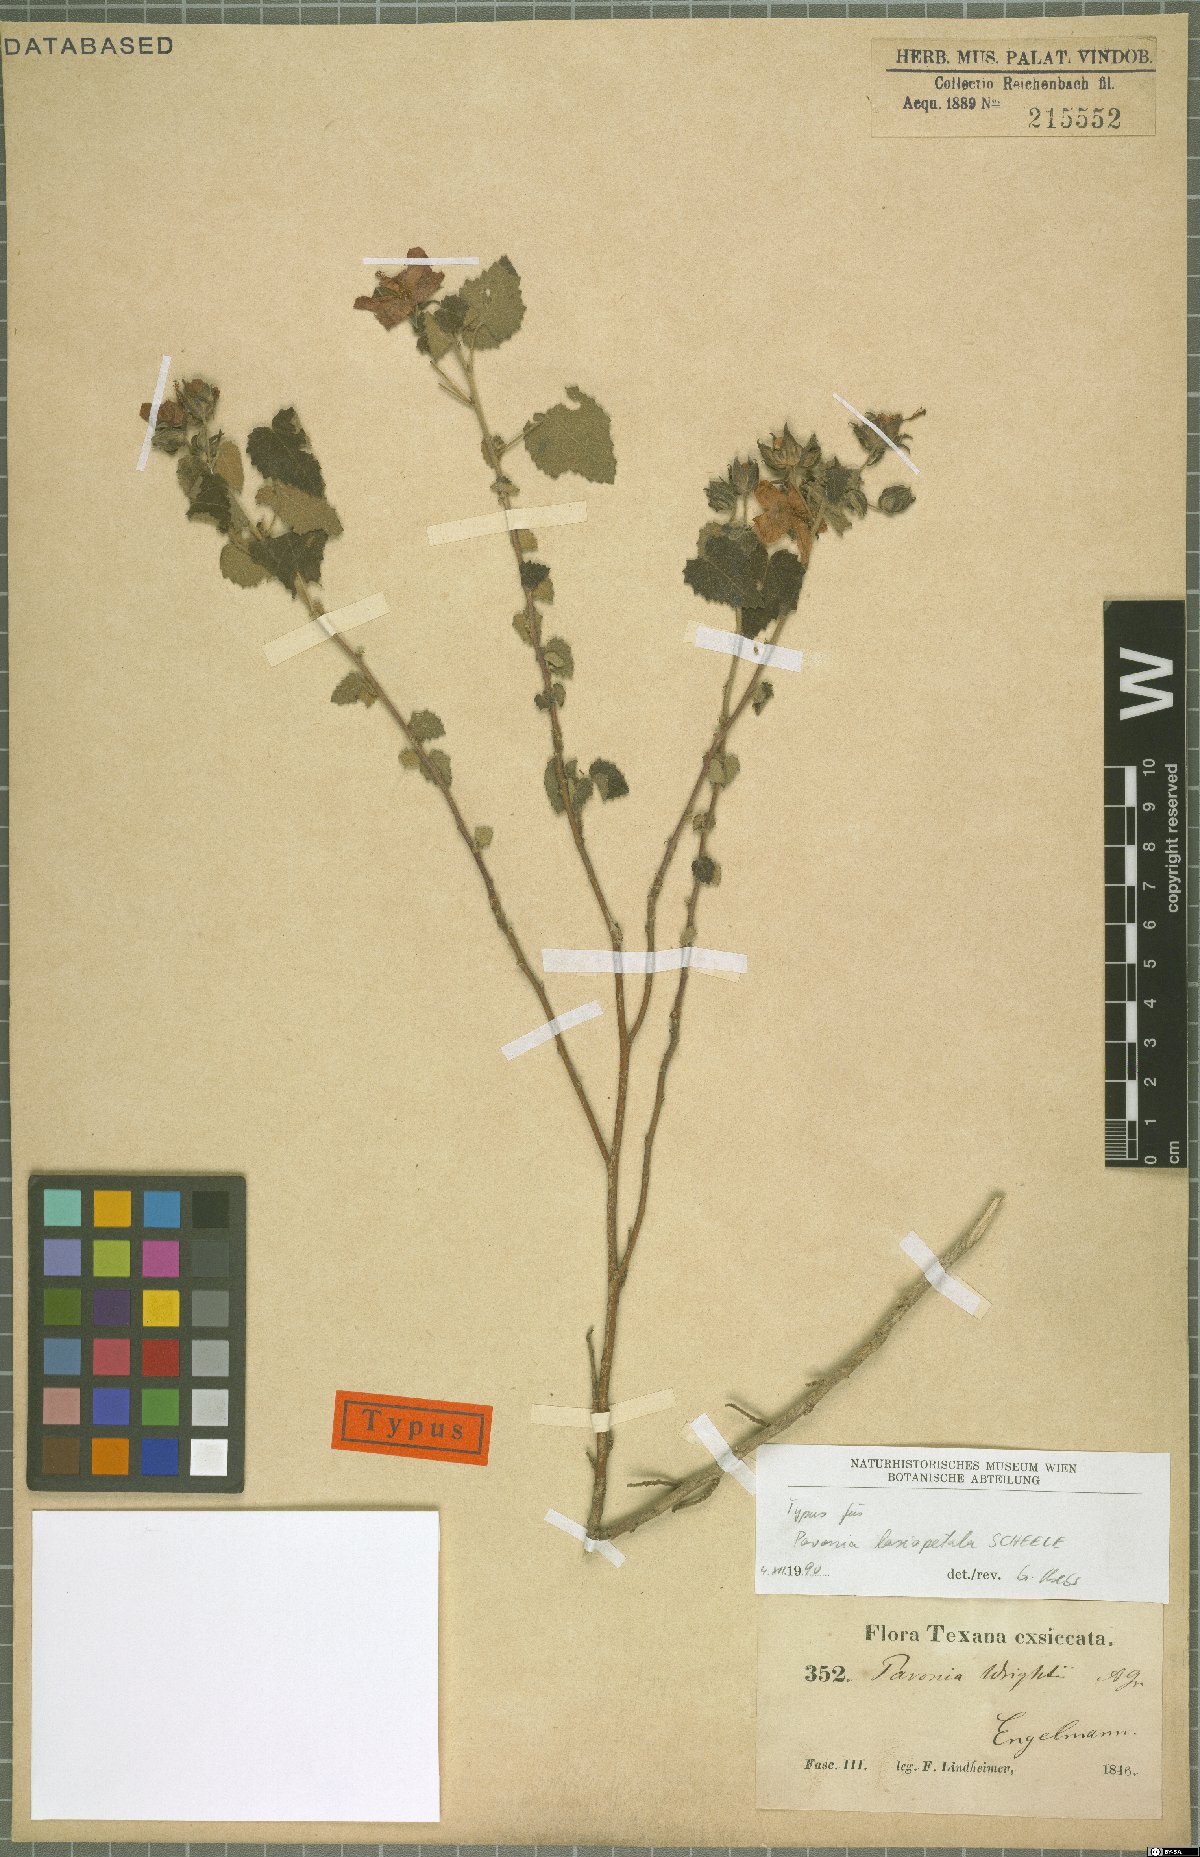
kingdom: Plantae
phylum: Tracheophyta
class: Magnoliopsida
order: Malvales
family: Malvaceae
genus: Pavonia
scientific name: Pavonia lasiopetala
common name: Texas swamp-mallow
